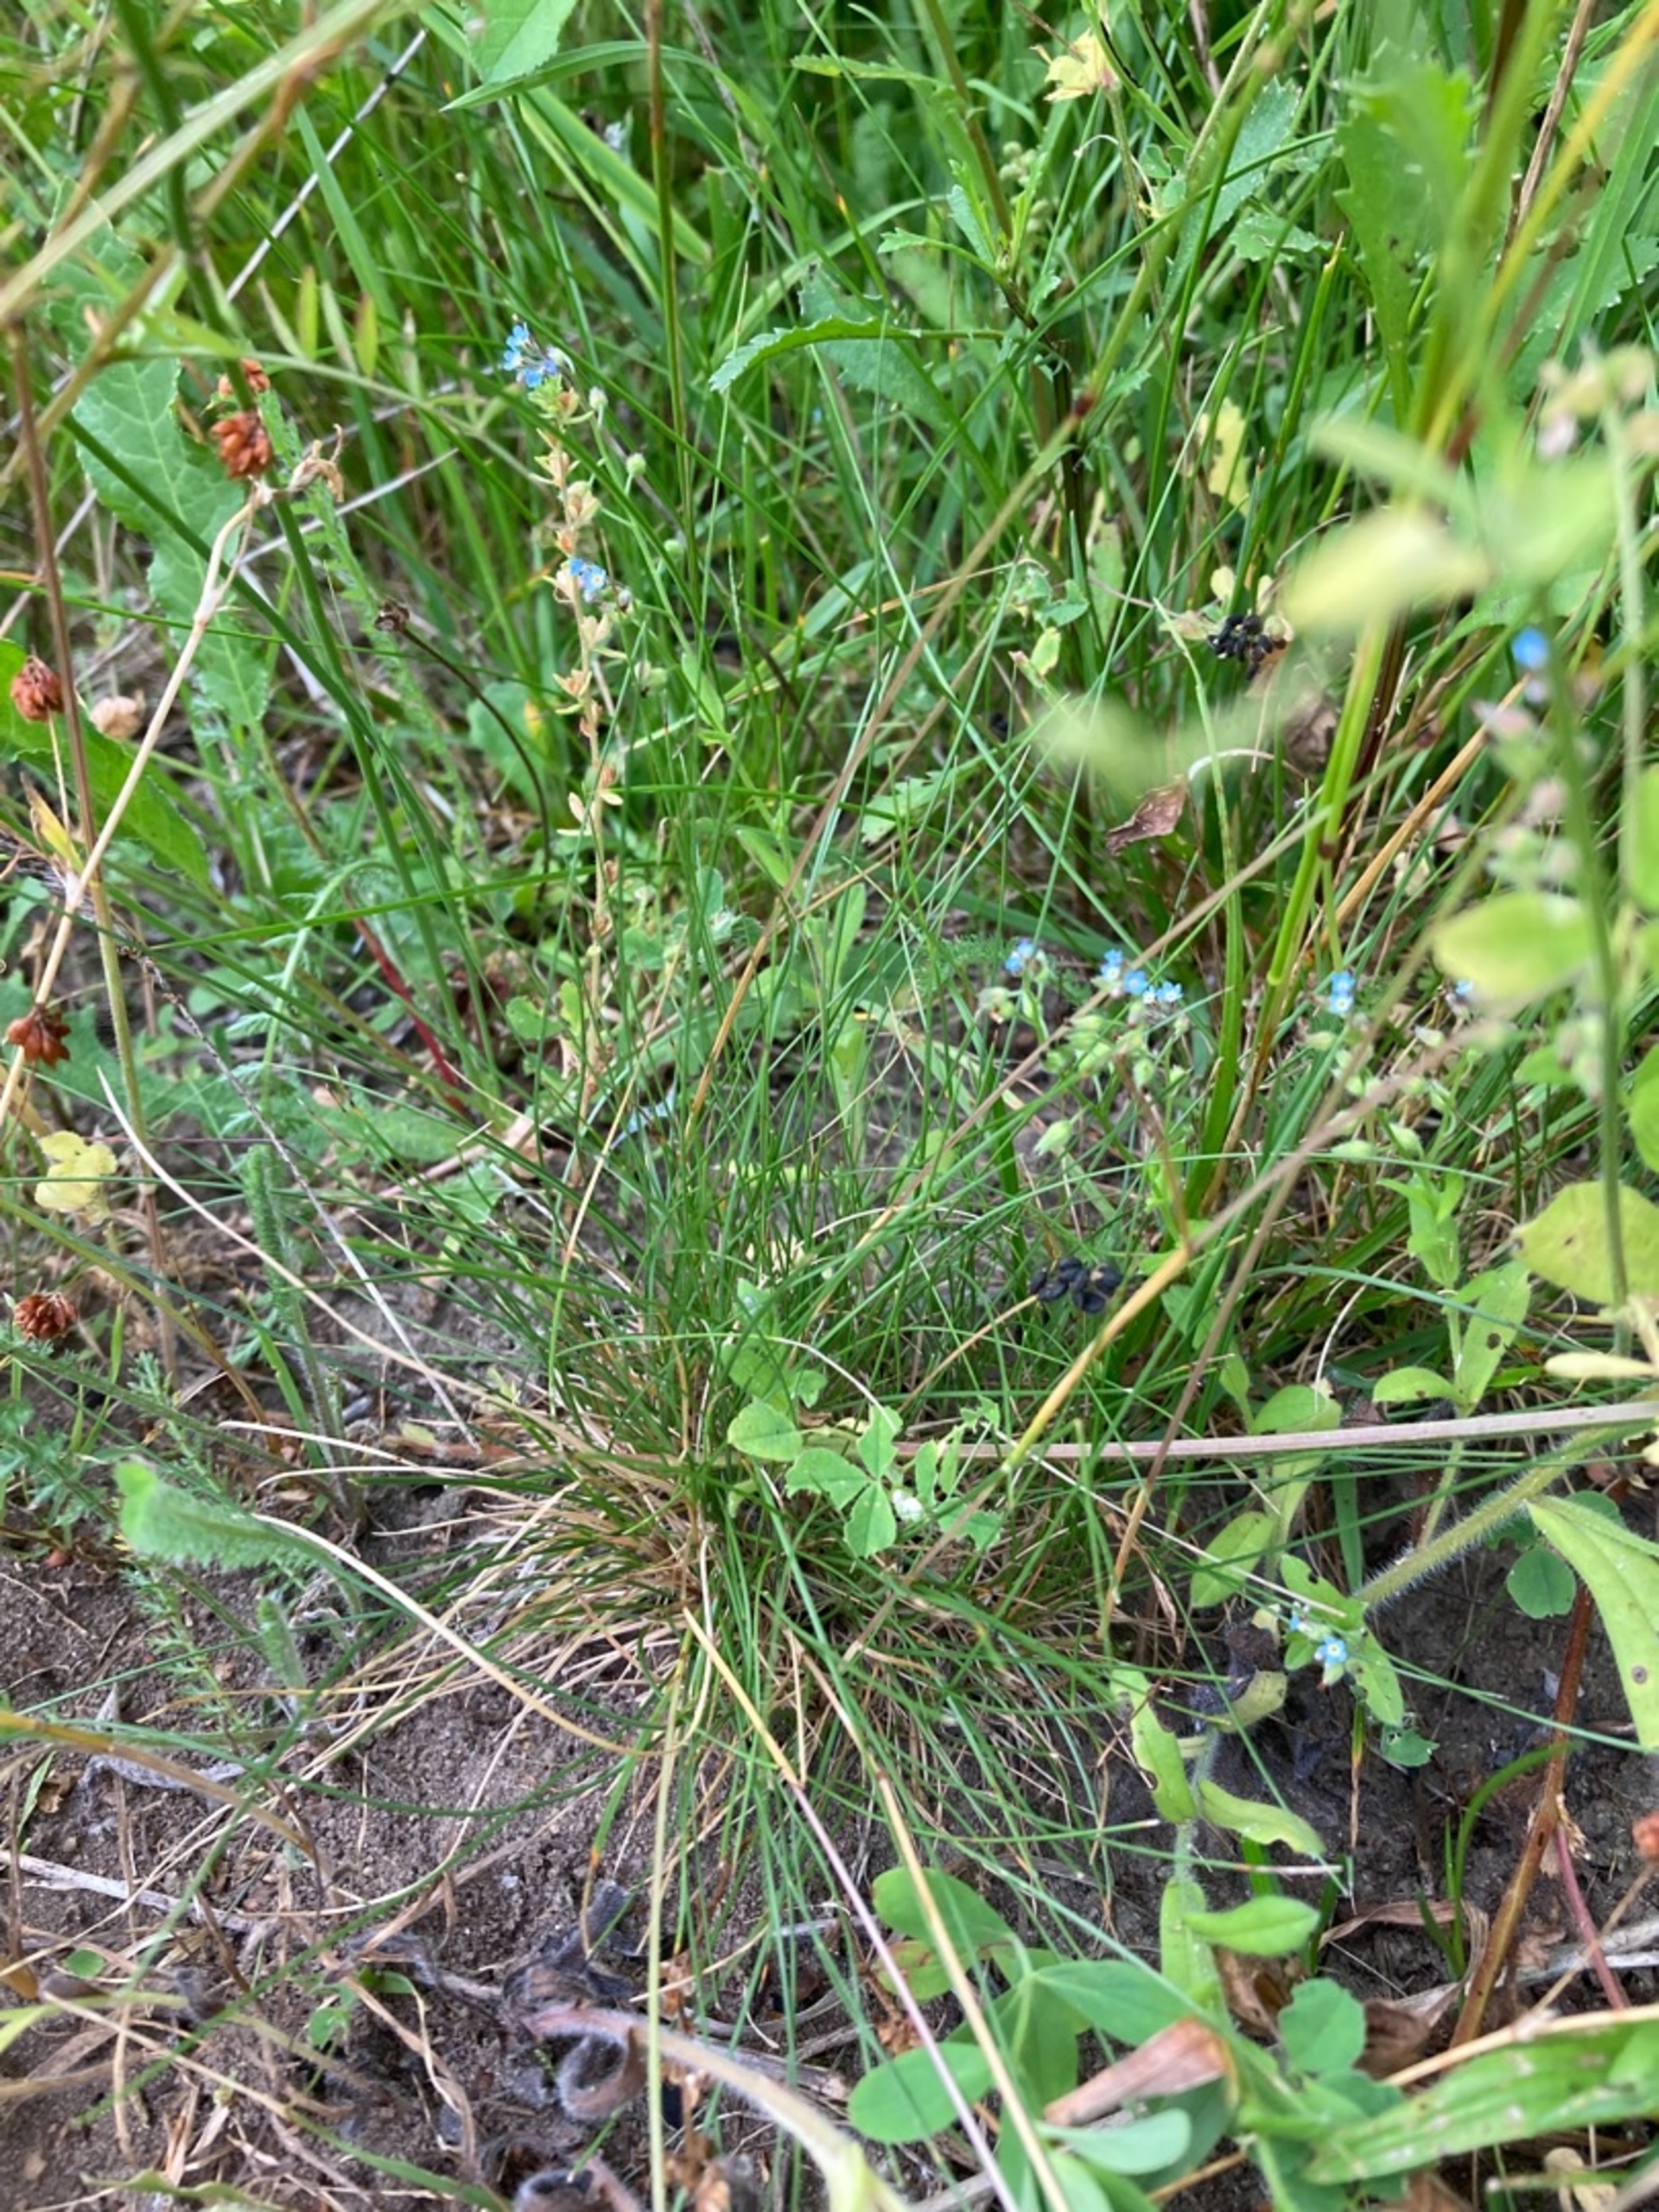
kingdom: Plantae
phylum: Tracheophyta
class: Liliopsida
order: Poales
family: Poaceae
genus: Festuca
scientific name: Festuca trachyphylla
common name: Bakke-svingel
